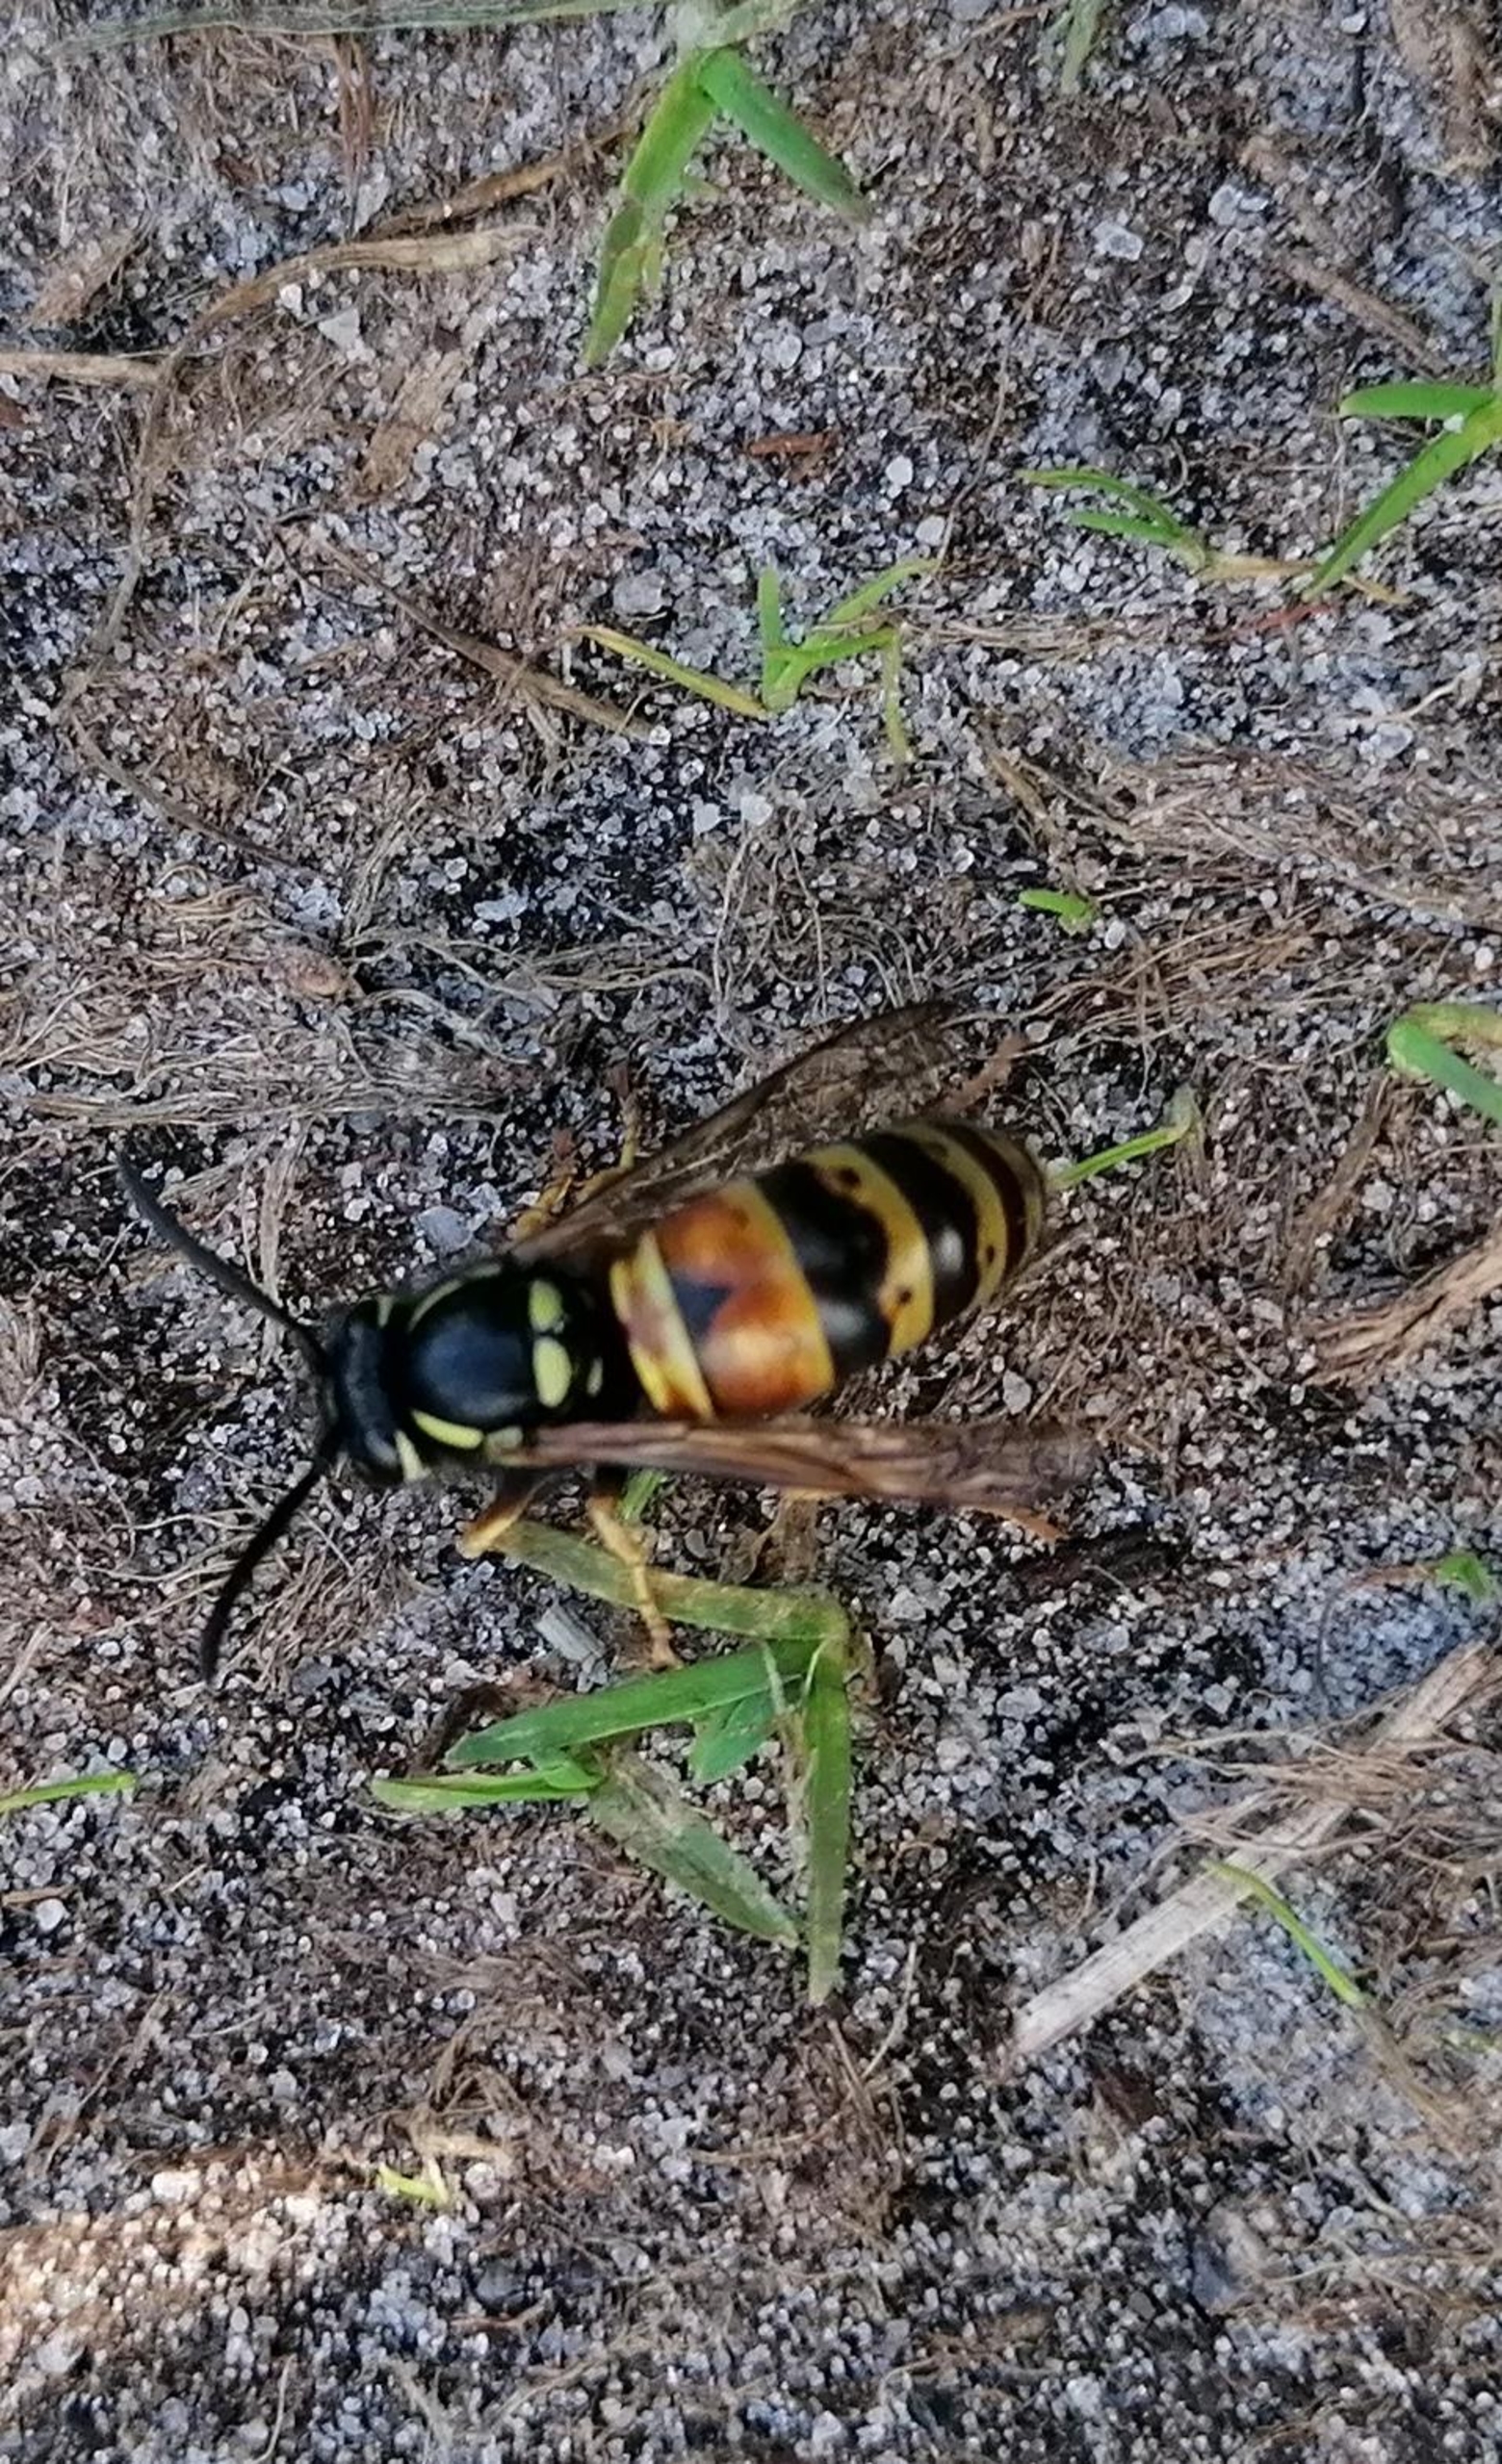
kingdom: Animalia
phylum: Arthropoda
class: Insecta
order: Hymenoptera
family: Vespidae
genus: Vespula
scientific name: Vespula rufa
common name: Rød gedehams
